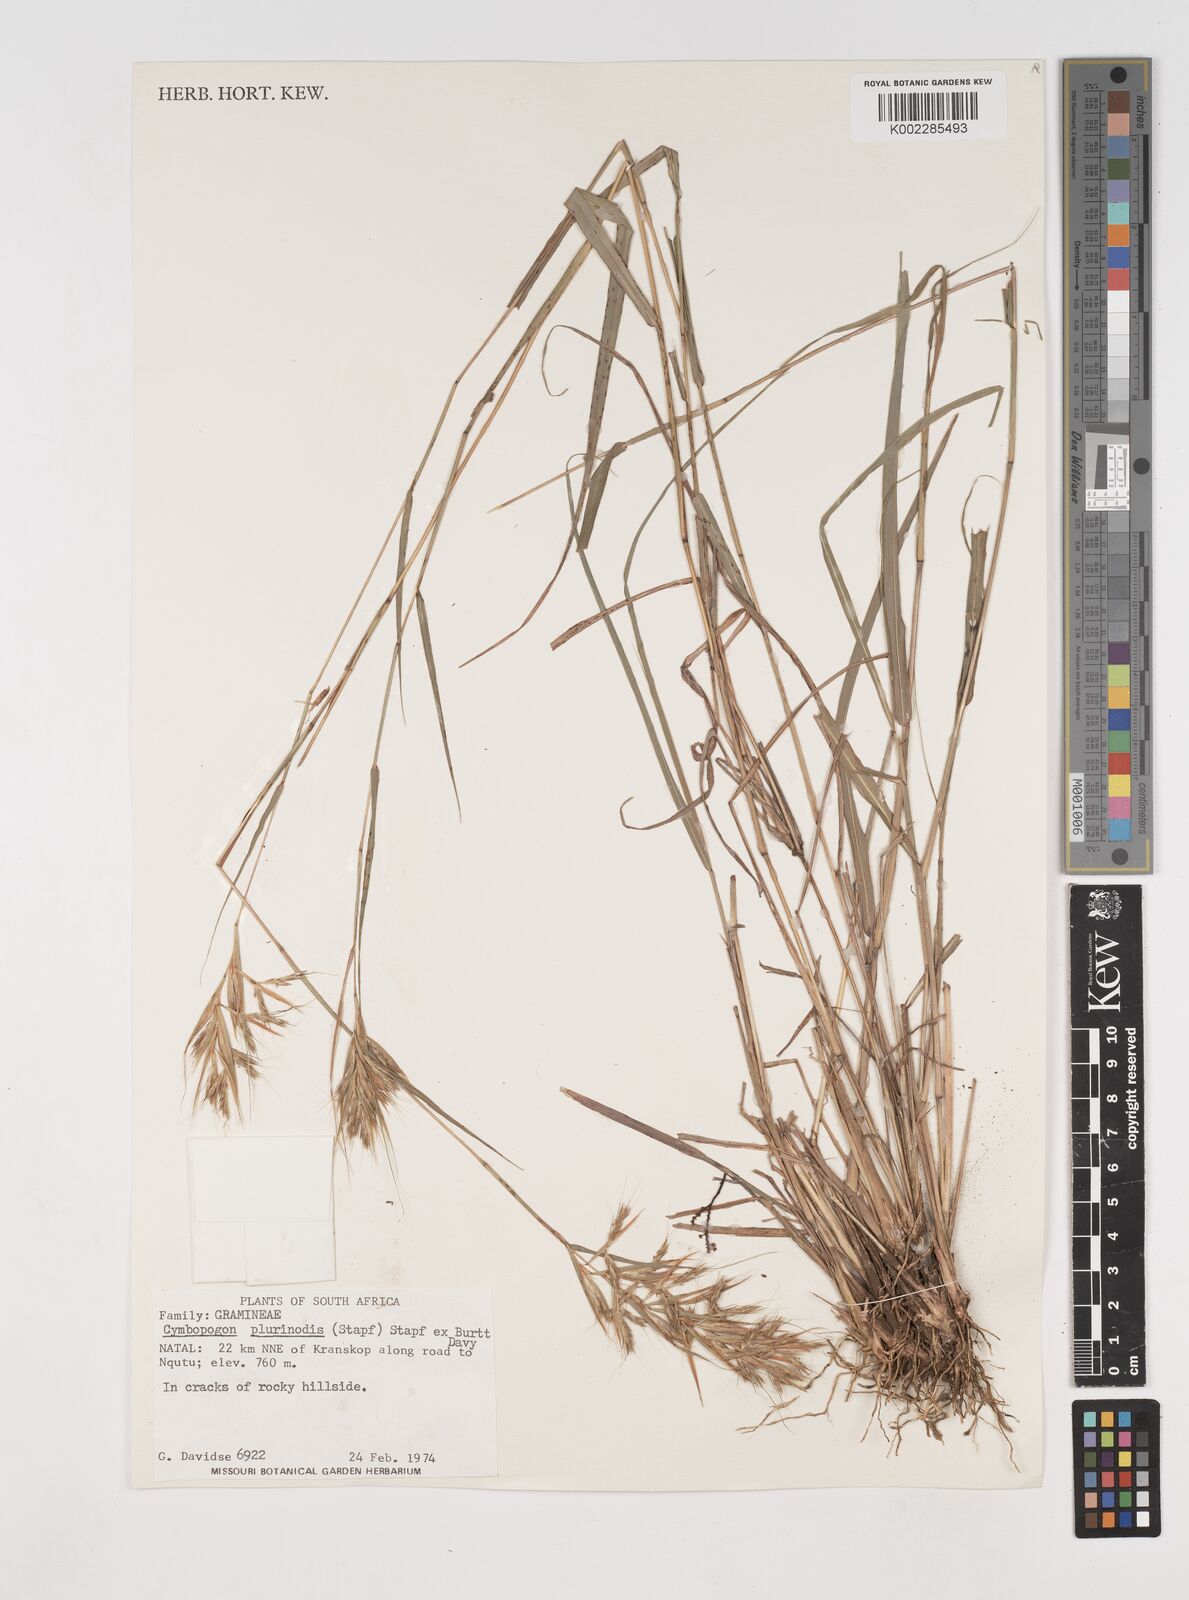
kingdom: Plantae
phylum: Tracheophyta
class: Liliopsida
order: Poales
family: Poaceae
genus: Cymbopogon
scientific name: Cymbopogon pospischilii
